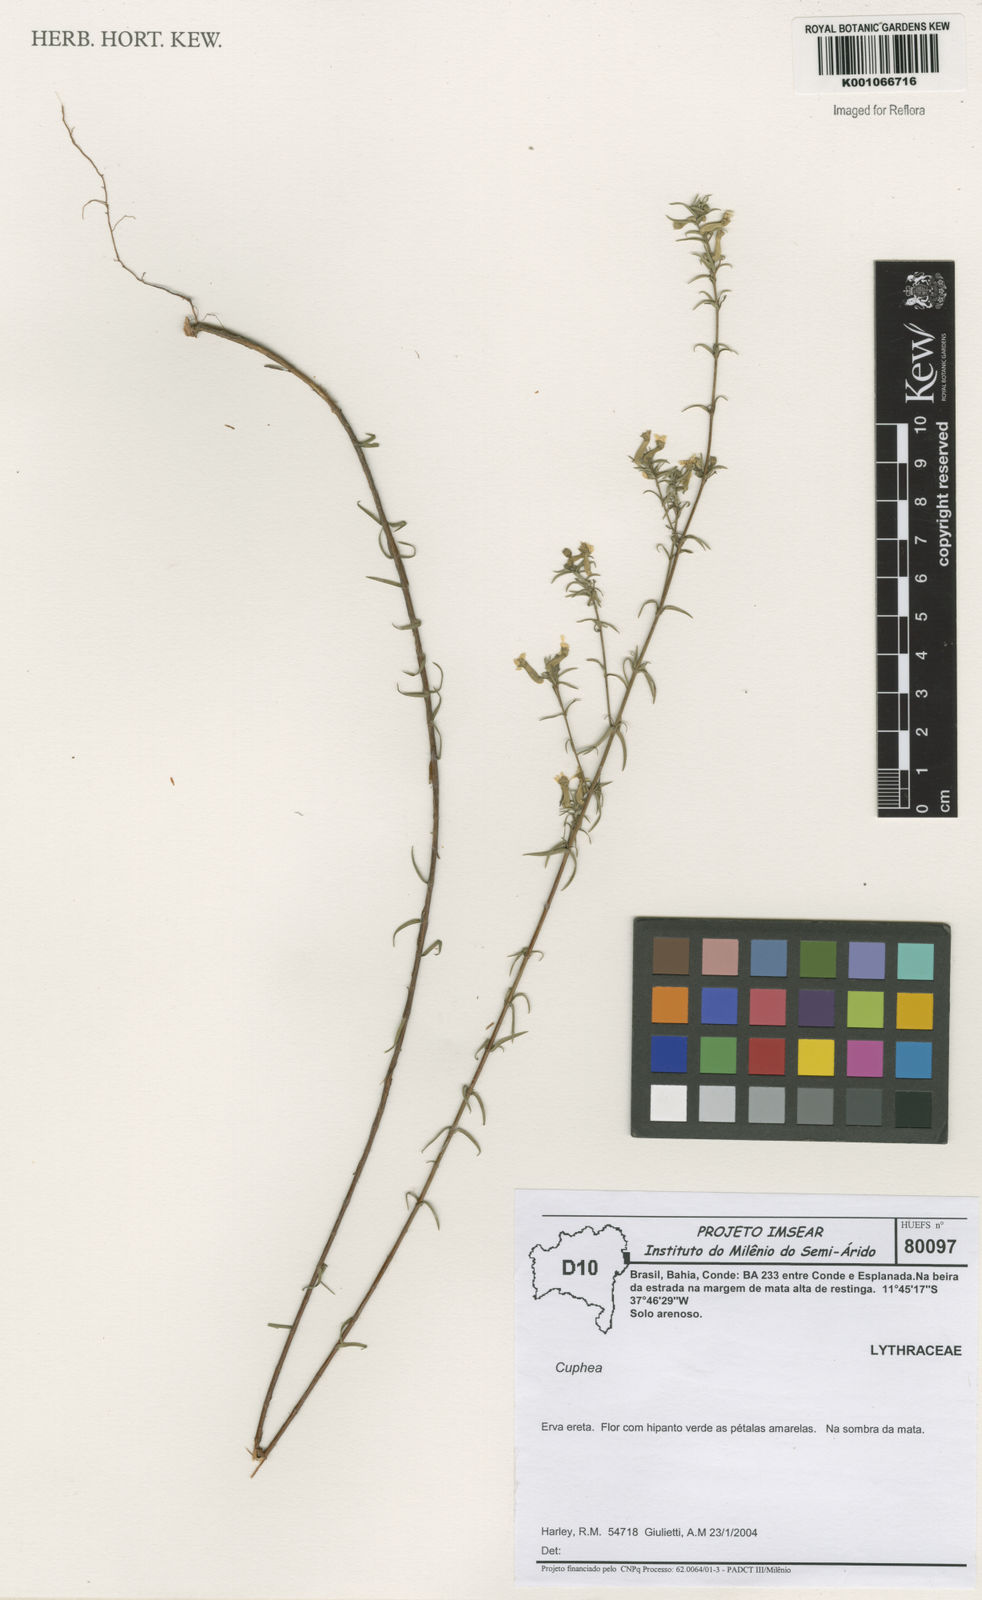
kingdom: Plantae
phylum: Tracheophyta
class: Magnoliopsida
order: Myrtales
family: Lythraceae
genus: Cuphea
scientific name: Cuphea
